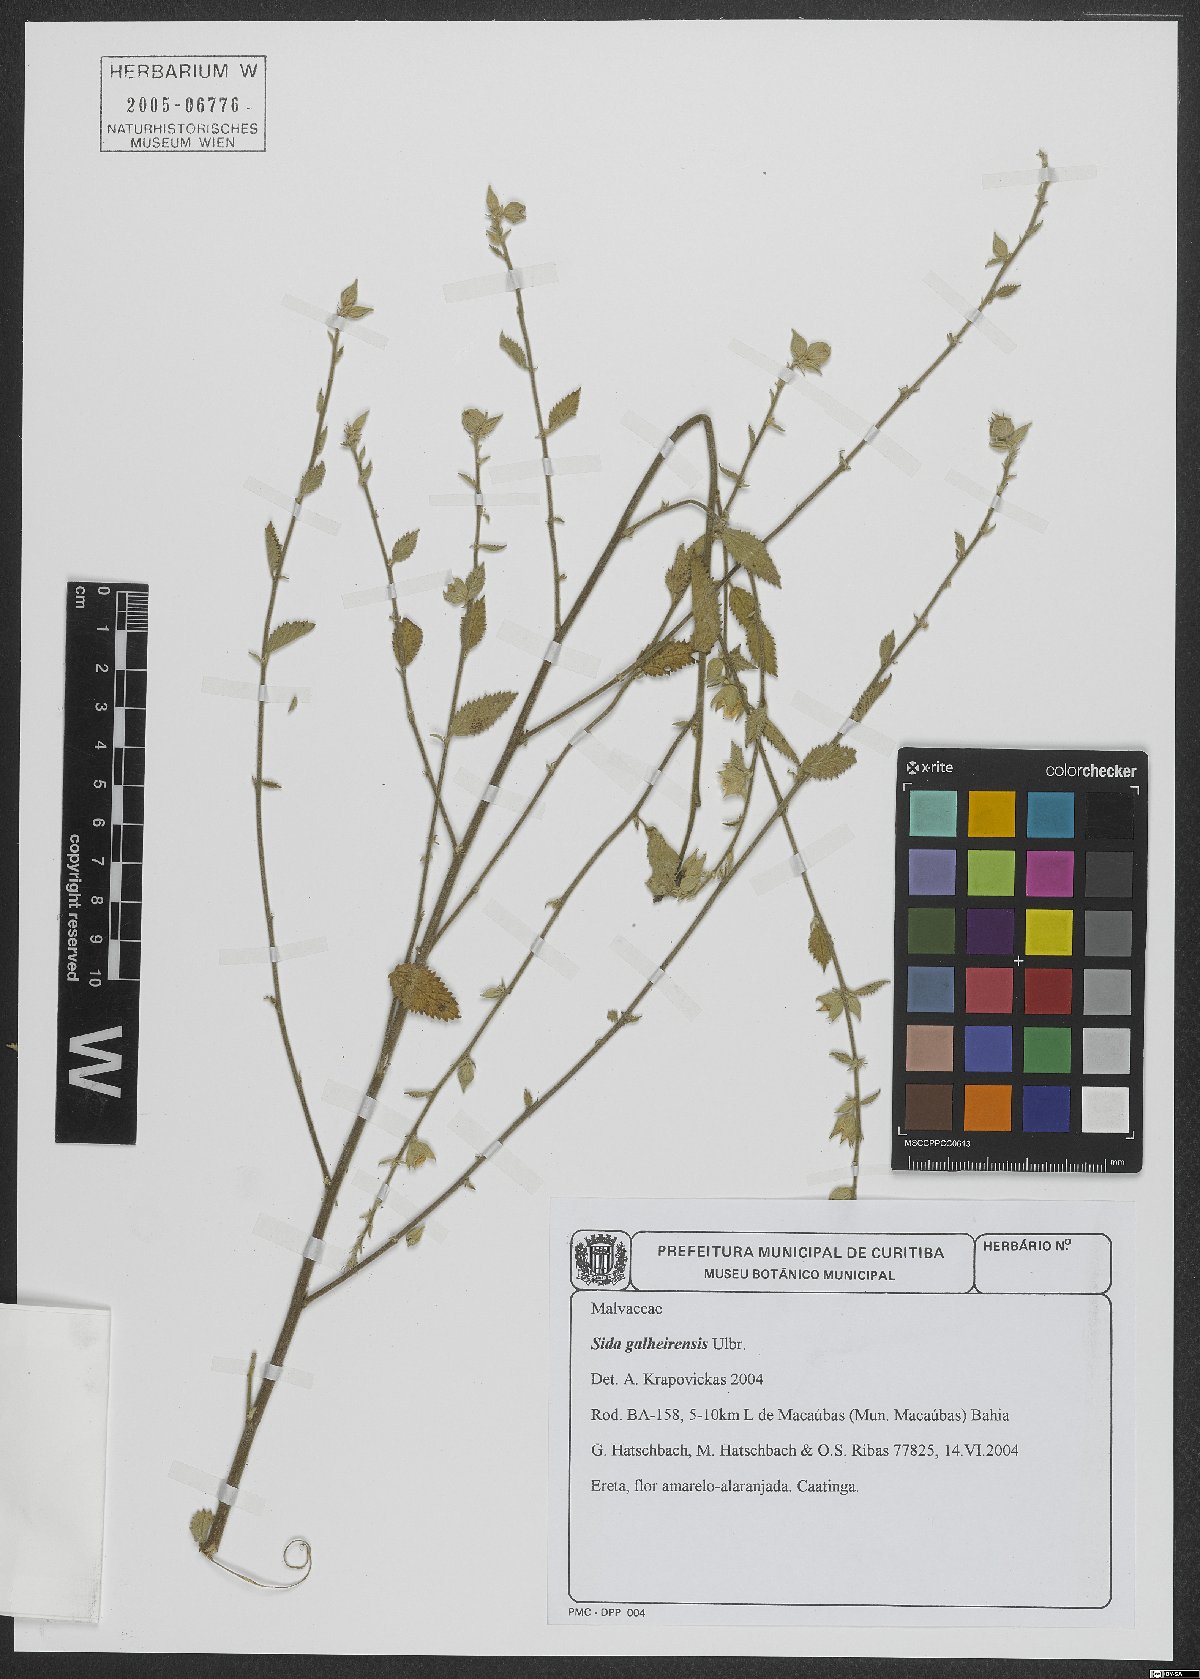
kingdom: Plantae
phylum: Tracheophyta
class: Magnoliopsida
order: Malvales
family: Malvaceae
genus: Sida
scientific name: Sida galheirensis
